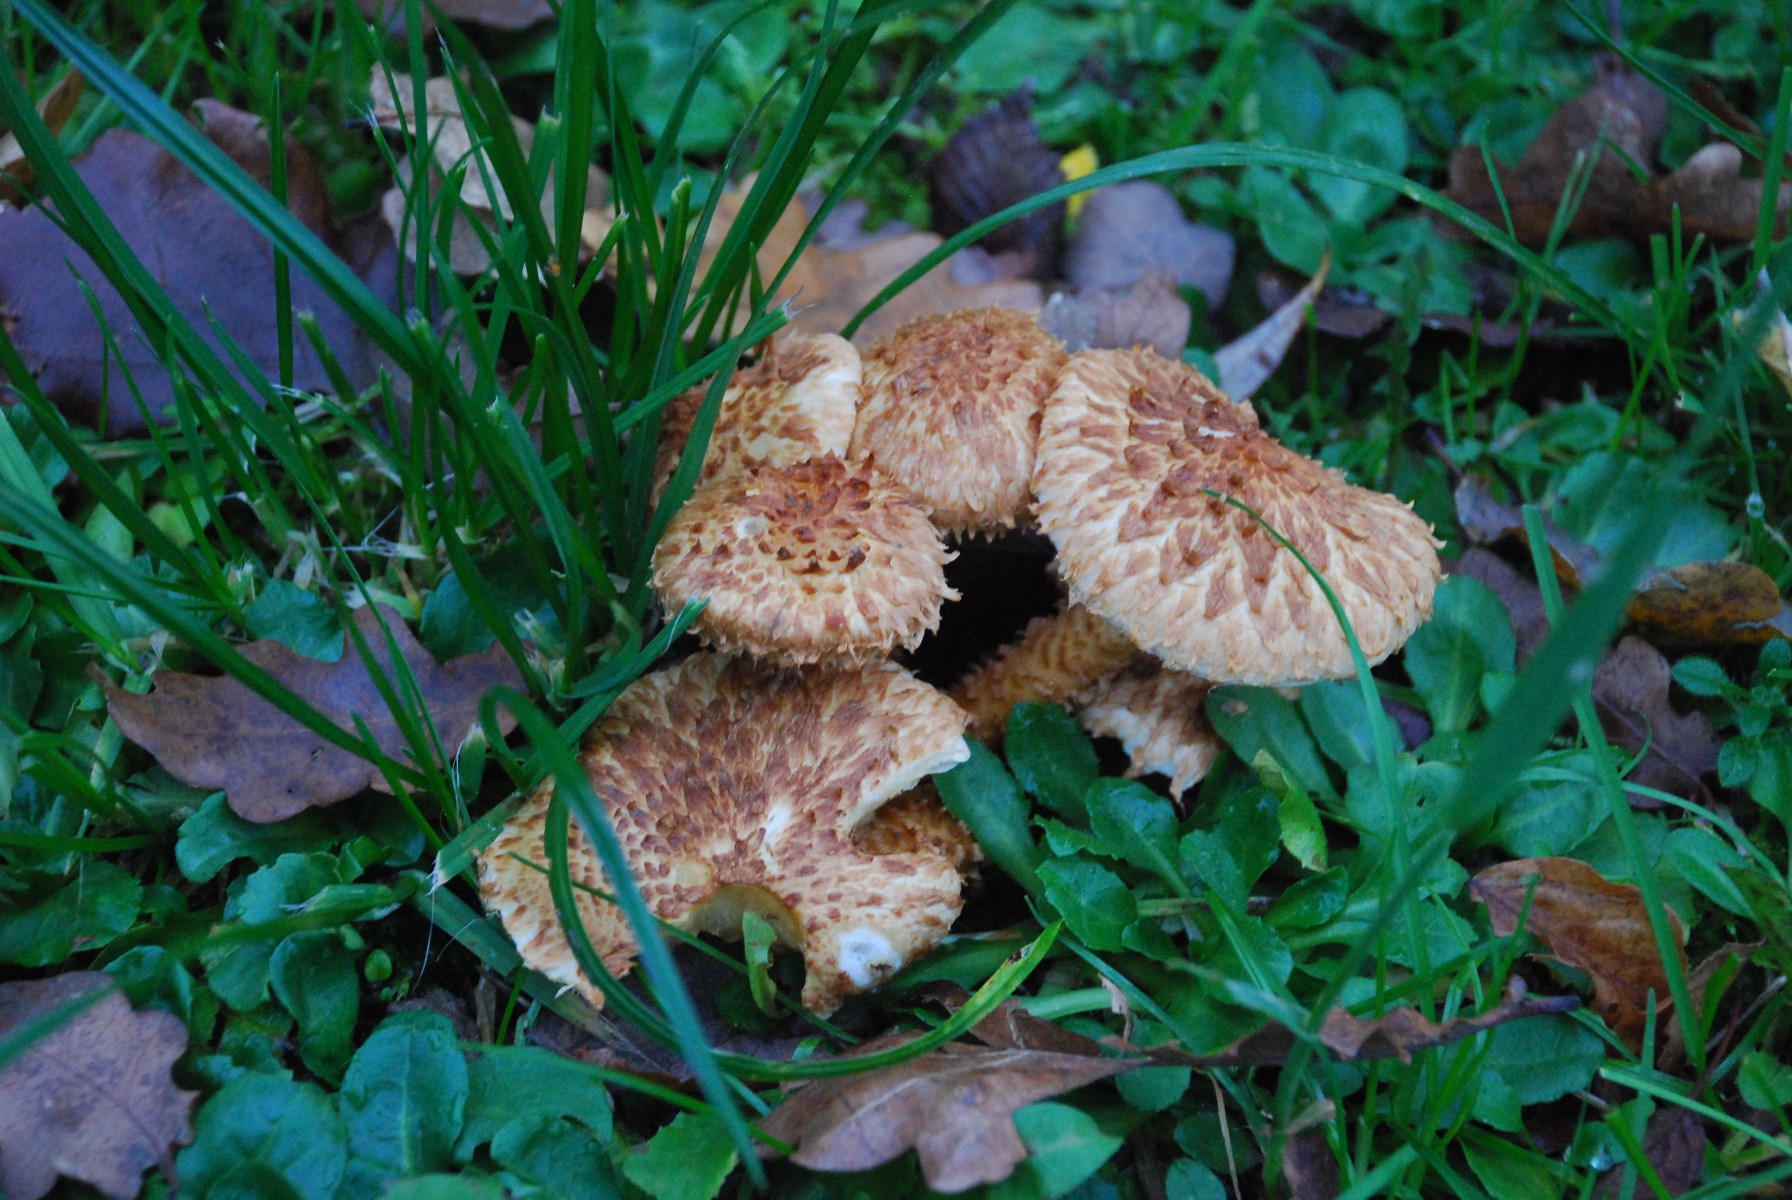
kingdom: Fungi
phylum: Basidiomycota
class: Agaricomycetes
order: Agaricales
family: Strophariaceae
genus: Pholiota
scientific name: Pholiota squarrosa
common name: krumskællet skælhat
